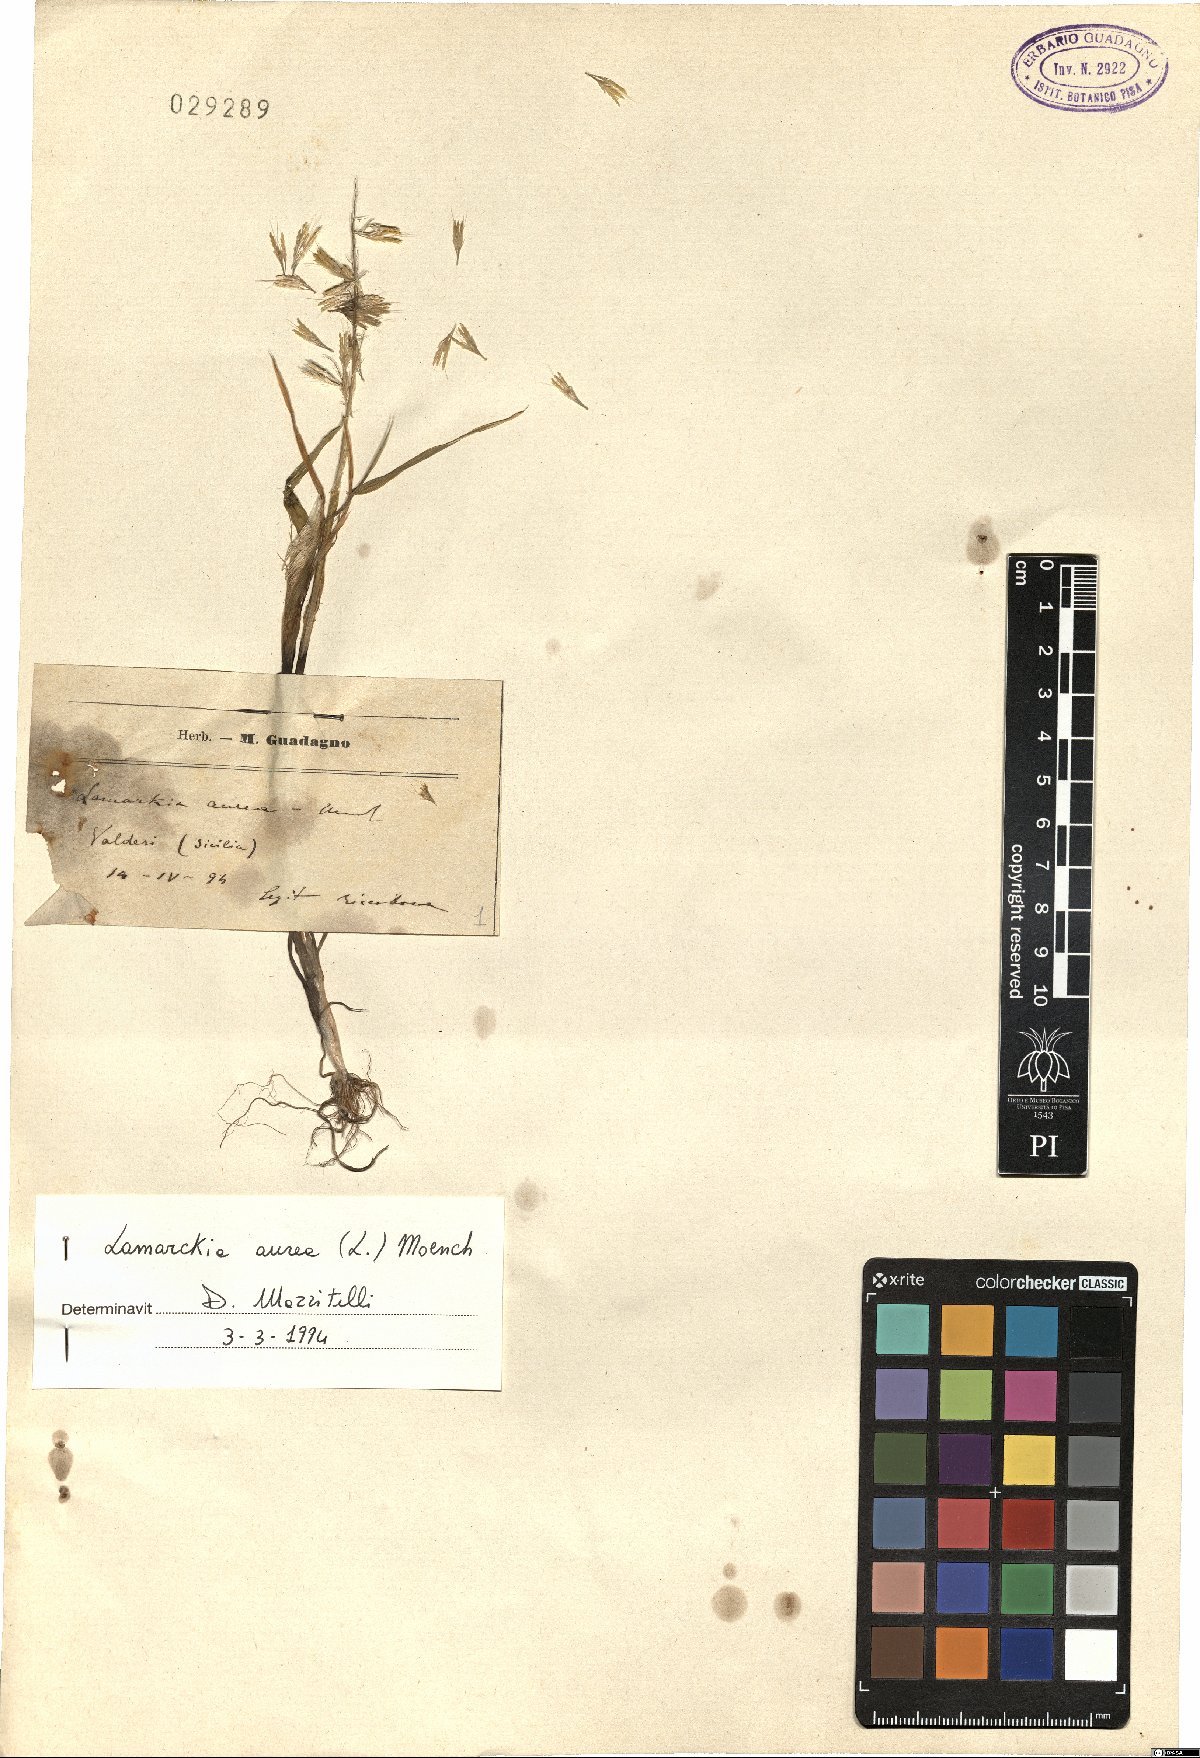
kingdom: Plantae
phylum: Tracheophyta
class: Liliopsida
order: Poales
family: Poaceae
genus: Lamarckia
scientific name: Lamarckia aurea
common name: Golden dog's-tail
